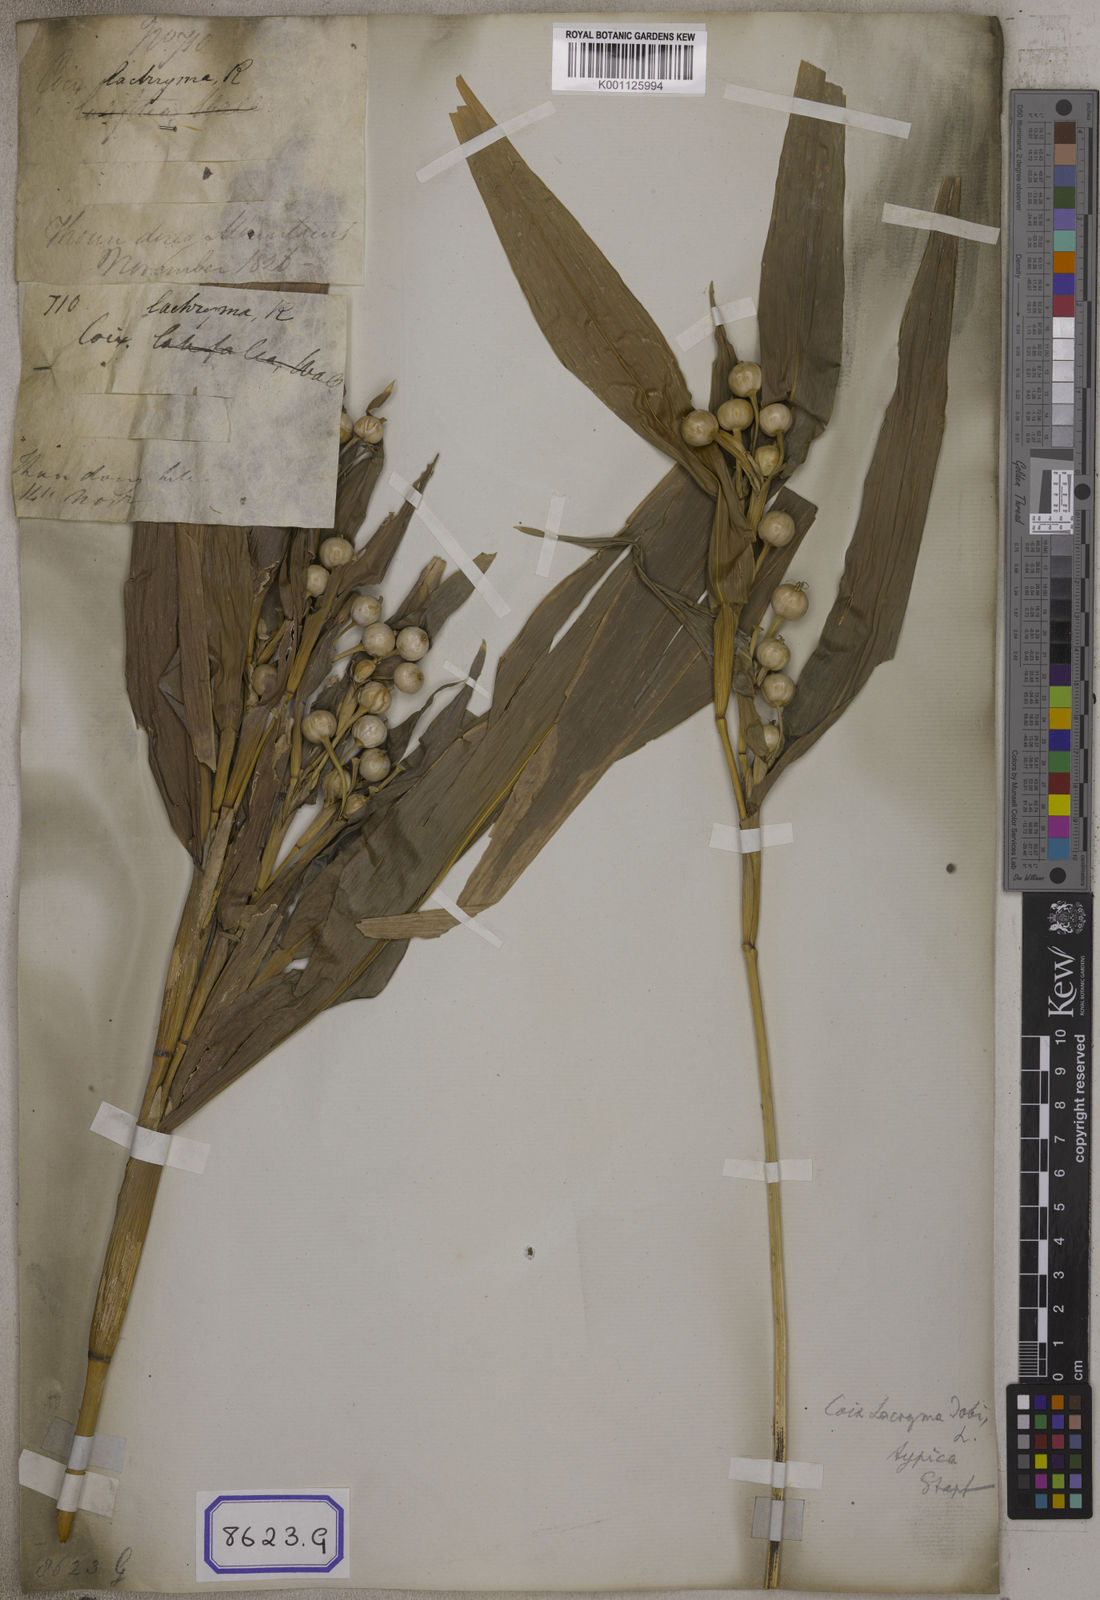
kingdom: Plantae
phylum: Tracheophyta
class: Liliopsida
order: Poales
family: Poaceae
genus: Coix
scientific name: Coix lacryma-jobi
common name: Job's tears
